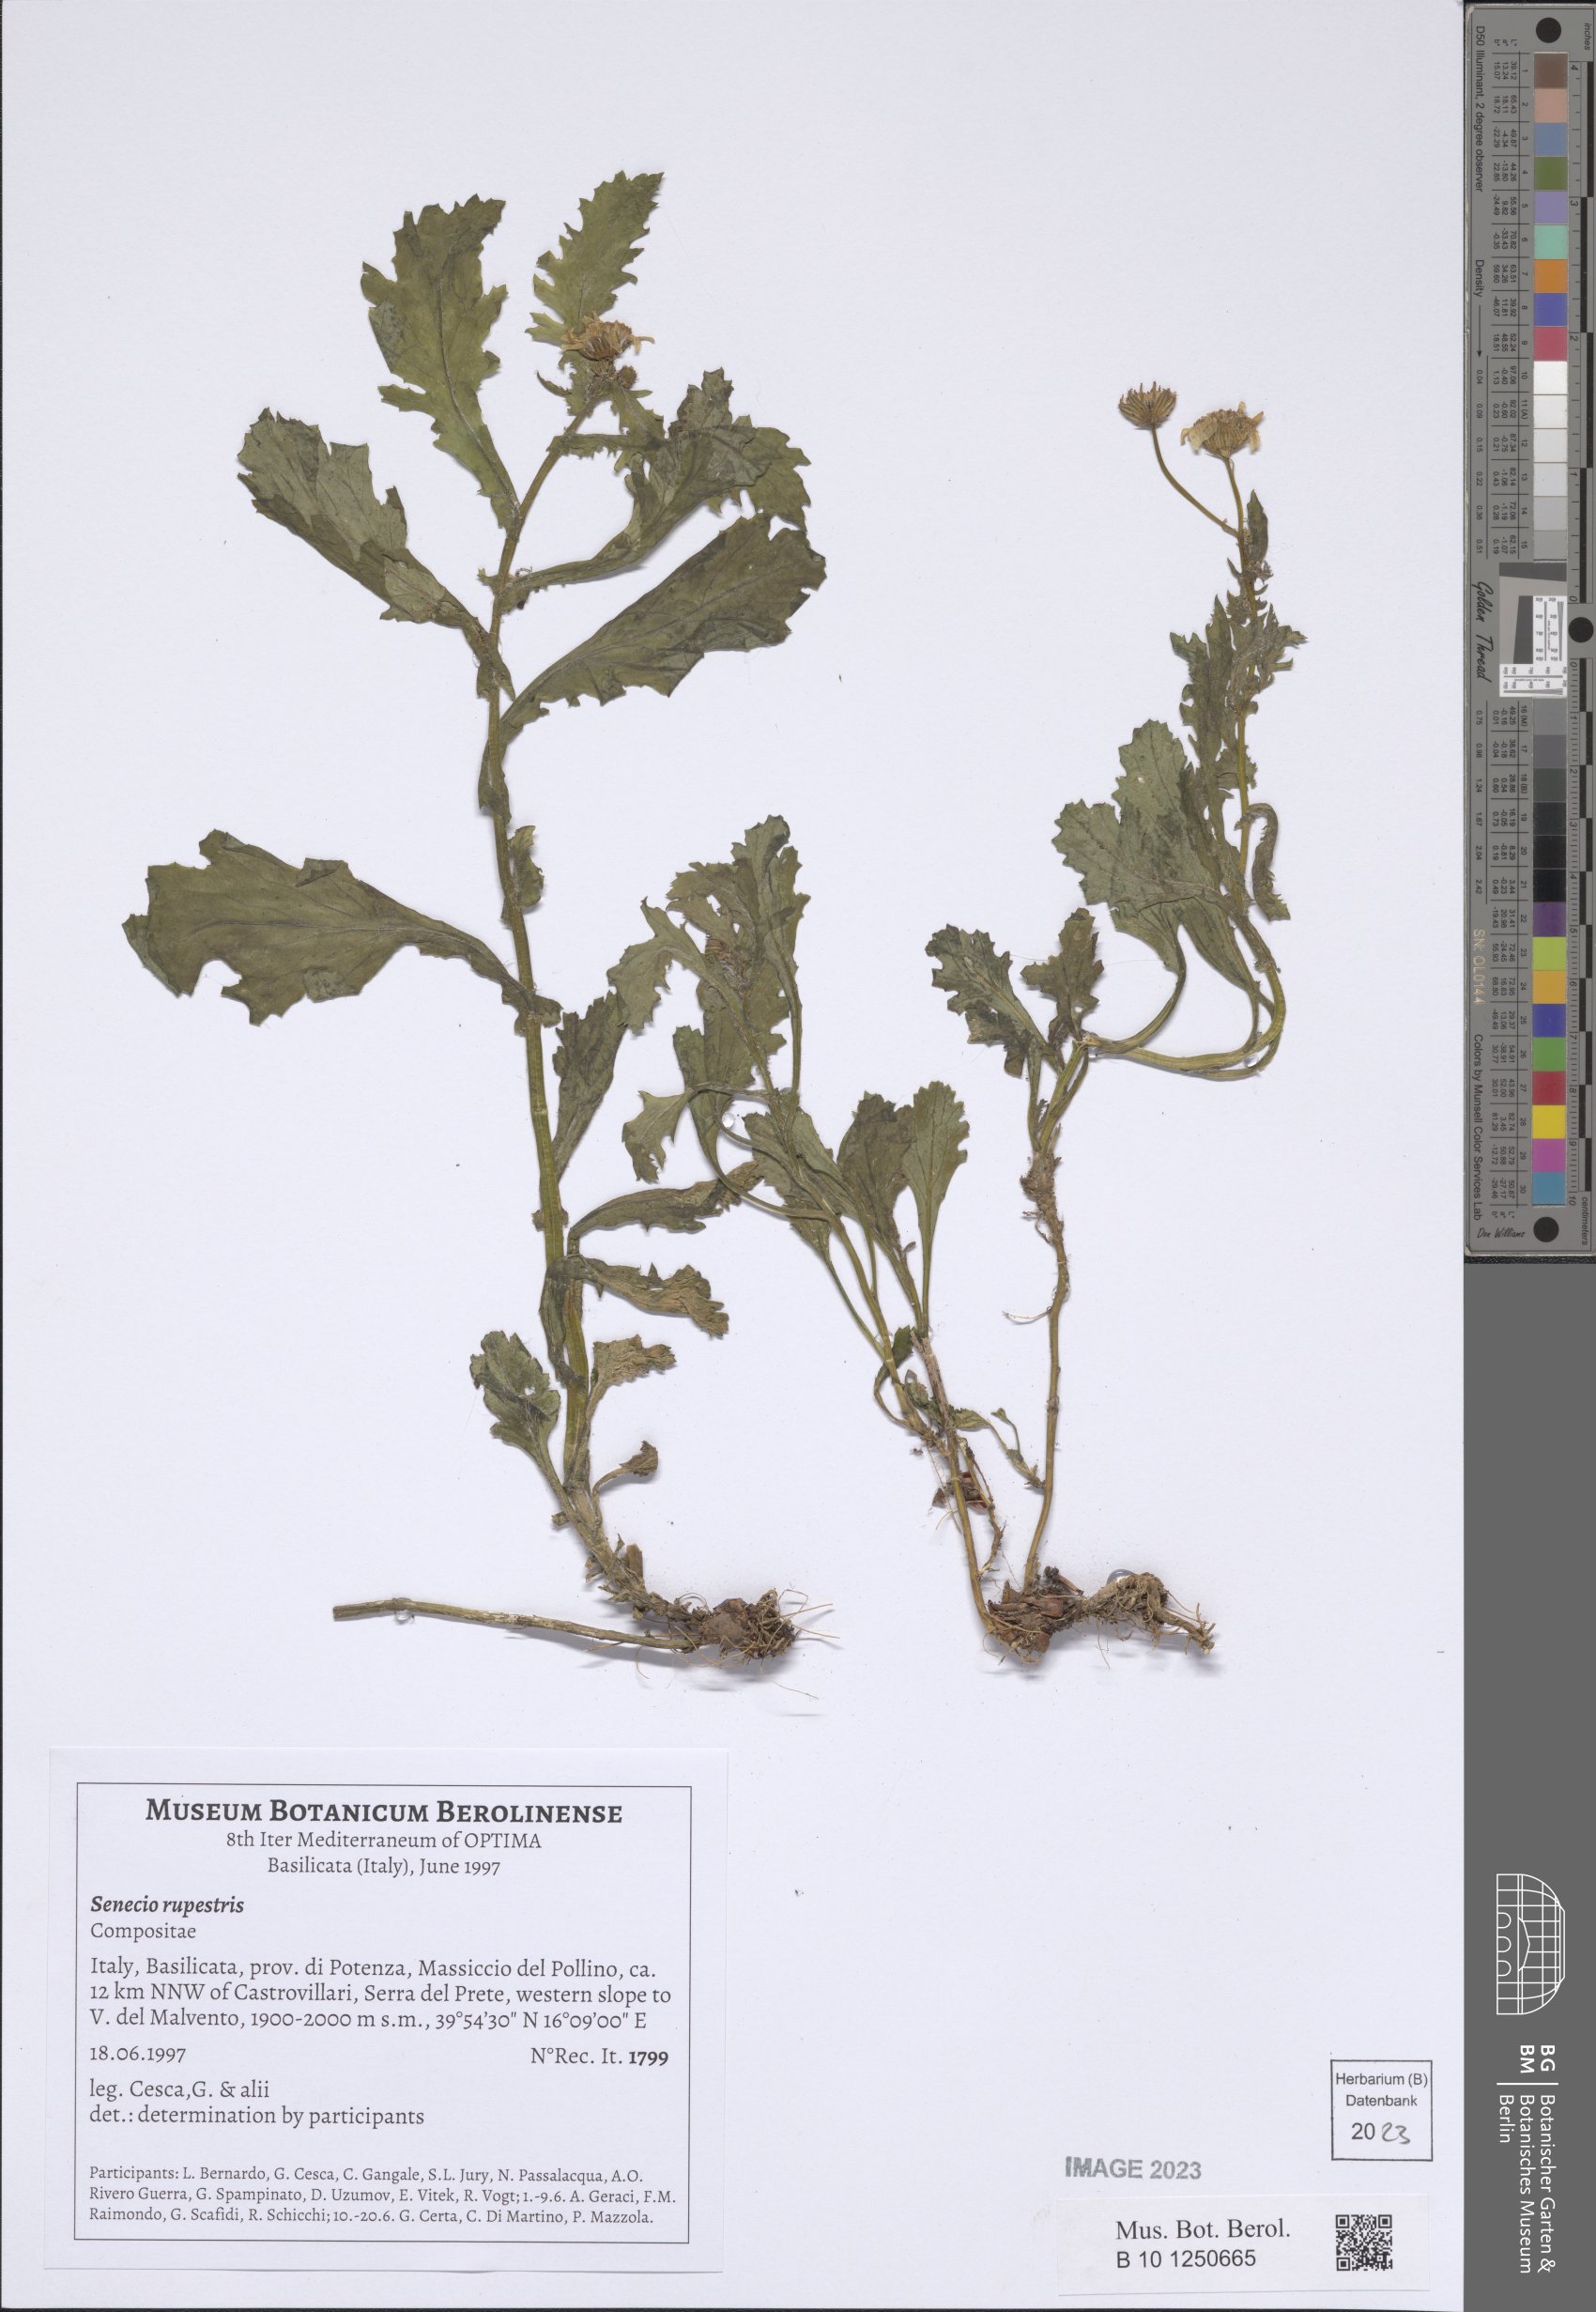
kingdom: Plantae
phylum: Tracheophyta
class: Magnoliopsida
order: Asterales
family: Asteraceae
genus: Senecio
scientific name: Senecio rupestris
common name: Rock ragwort
